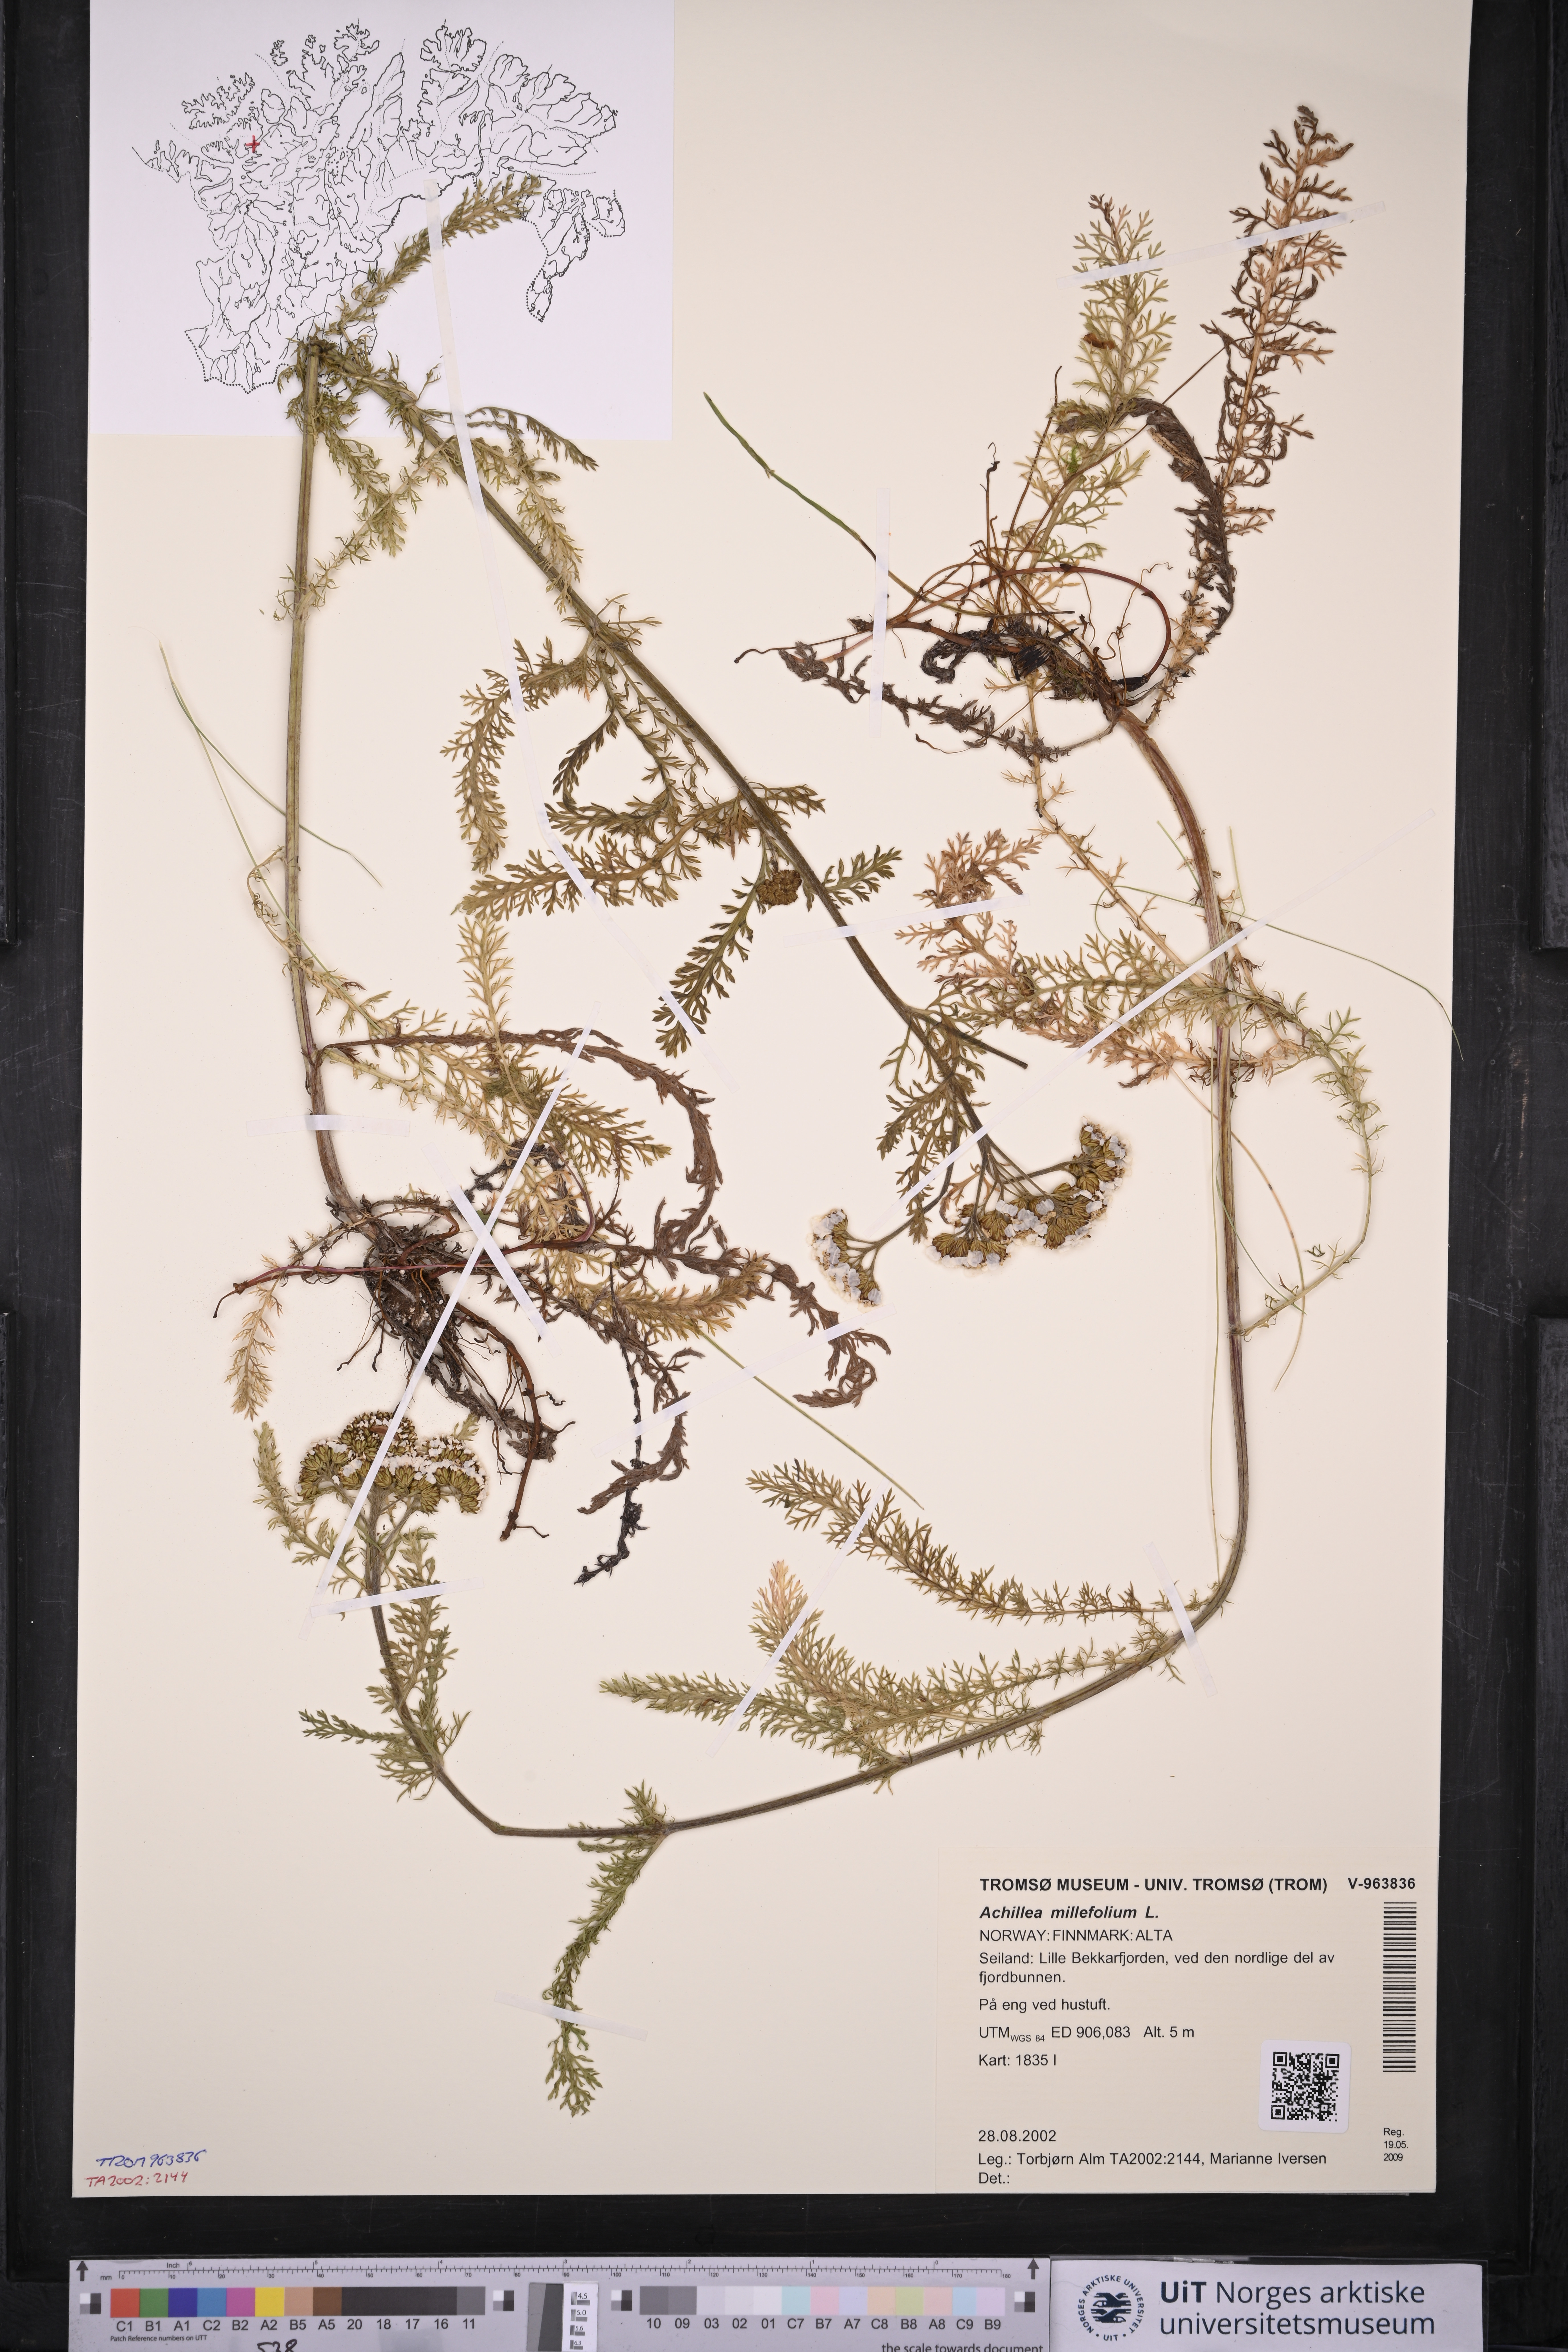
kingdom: Plantae
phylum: Tracheophyta
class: Magnoliopsida
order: Asterales
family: Asteraceae
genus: Achillea
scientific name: Achillea millefolium
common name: Yarrow
